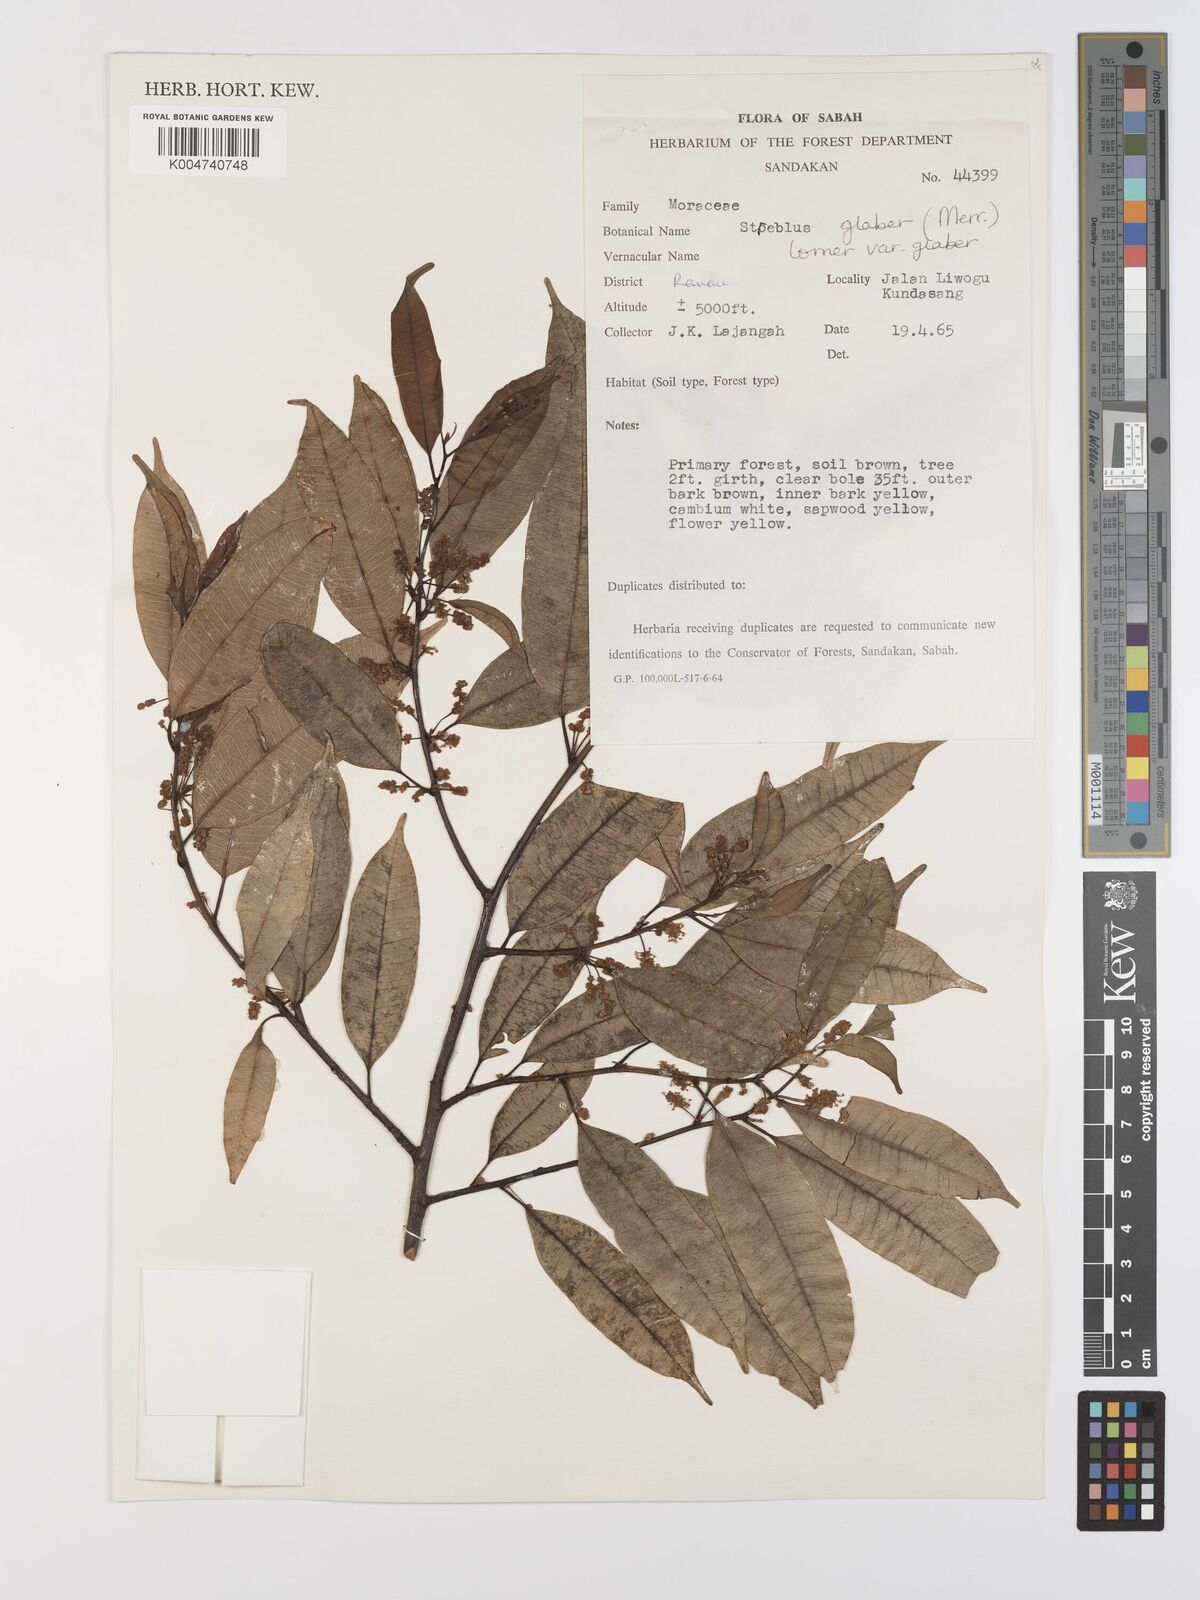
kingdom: Plantae
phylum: Tracheophyta
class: Magnoliopsida
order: Rosales
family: Moraceae
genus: Paratrophis
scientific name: Paratrophis glabra
